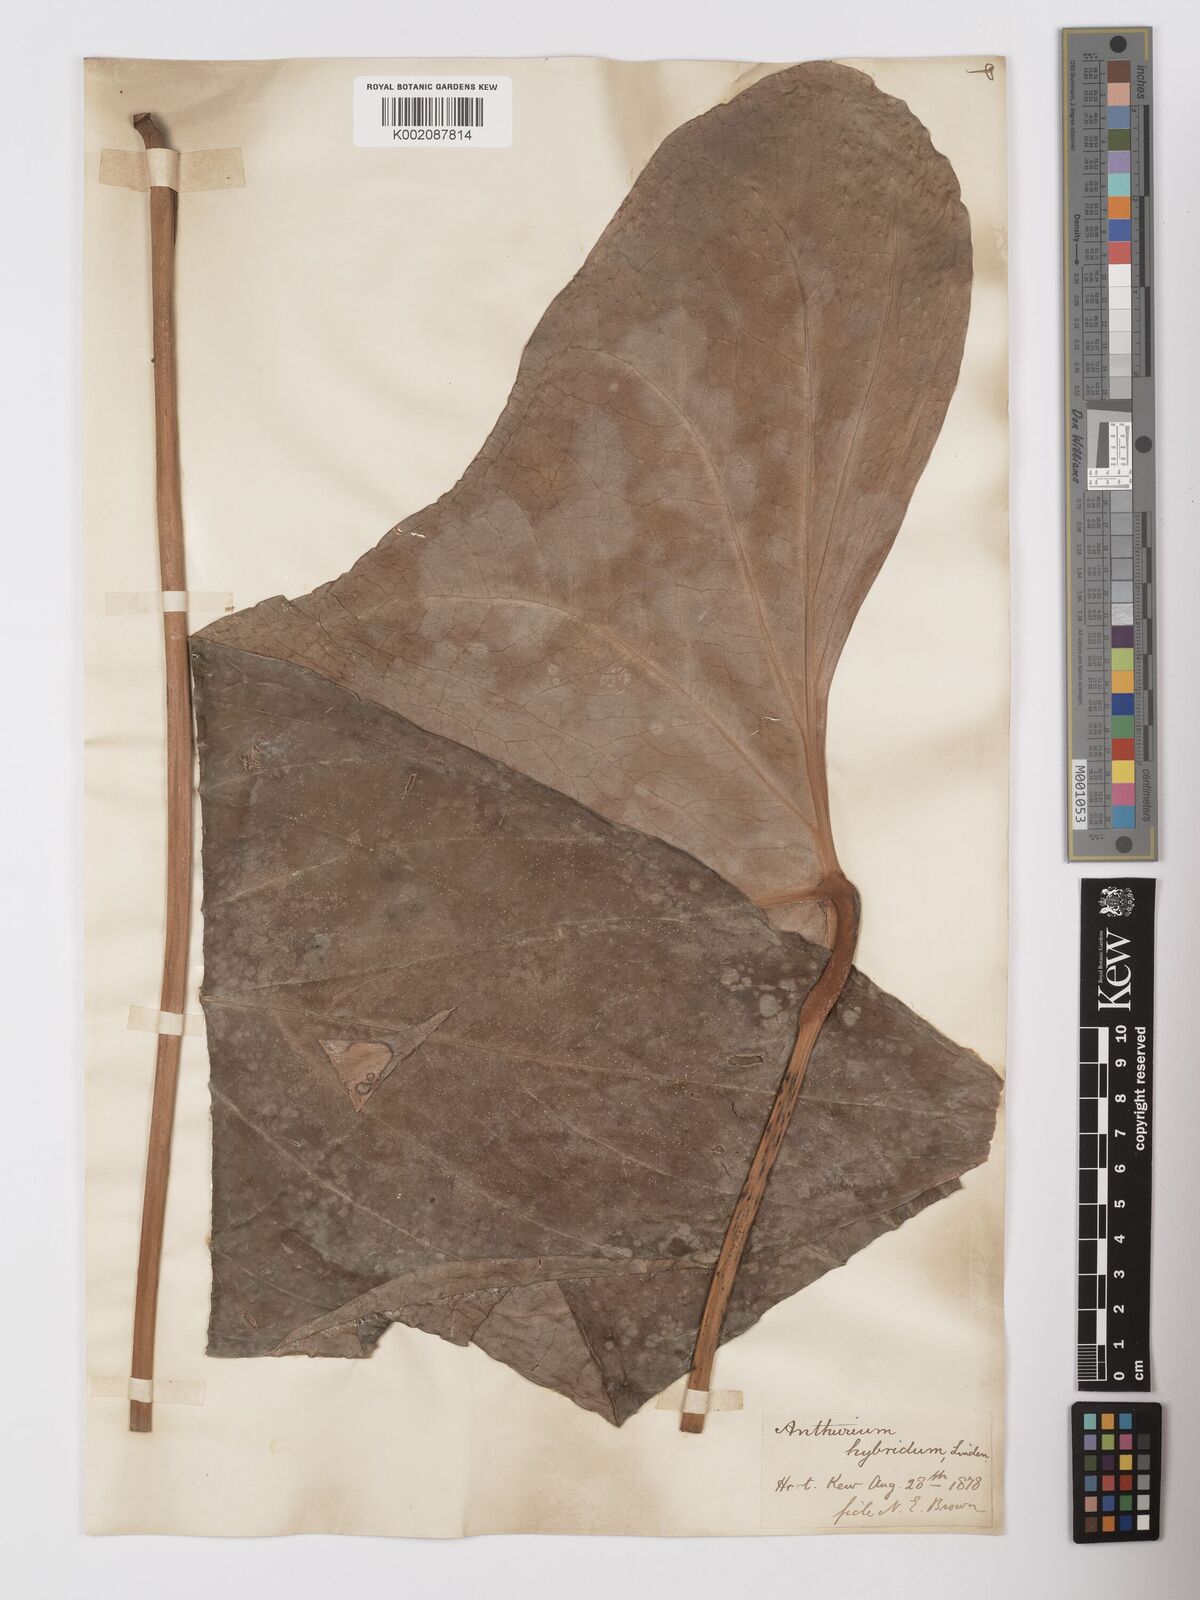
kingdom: Plantae
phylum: Tracheophyta
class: Liliopsida
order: Alismatales
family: Araceae
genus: Anthurium
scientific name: Anthurium
